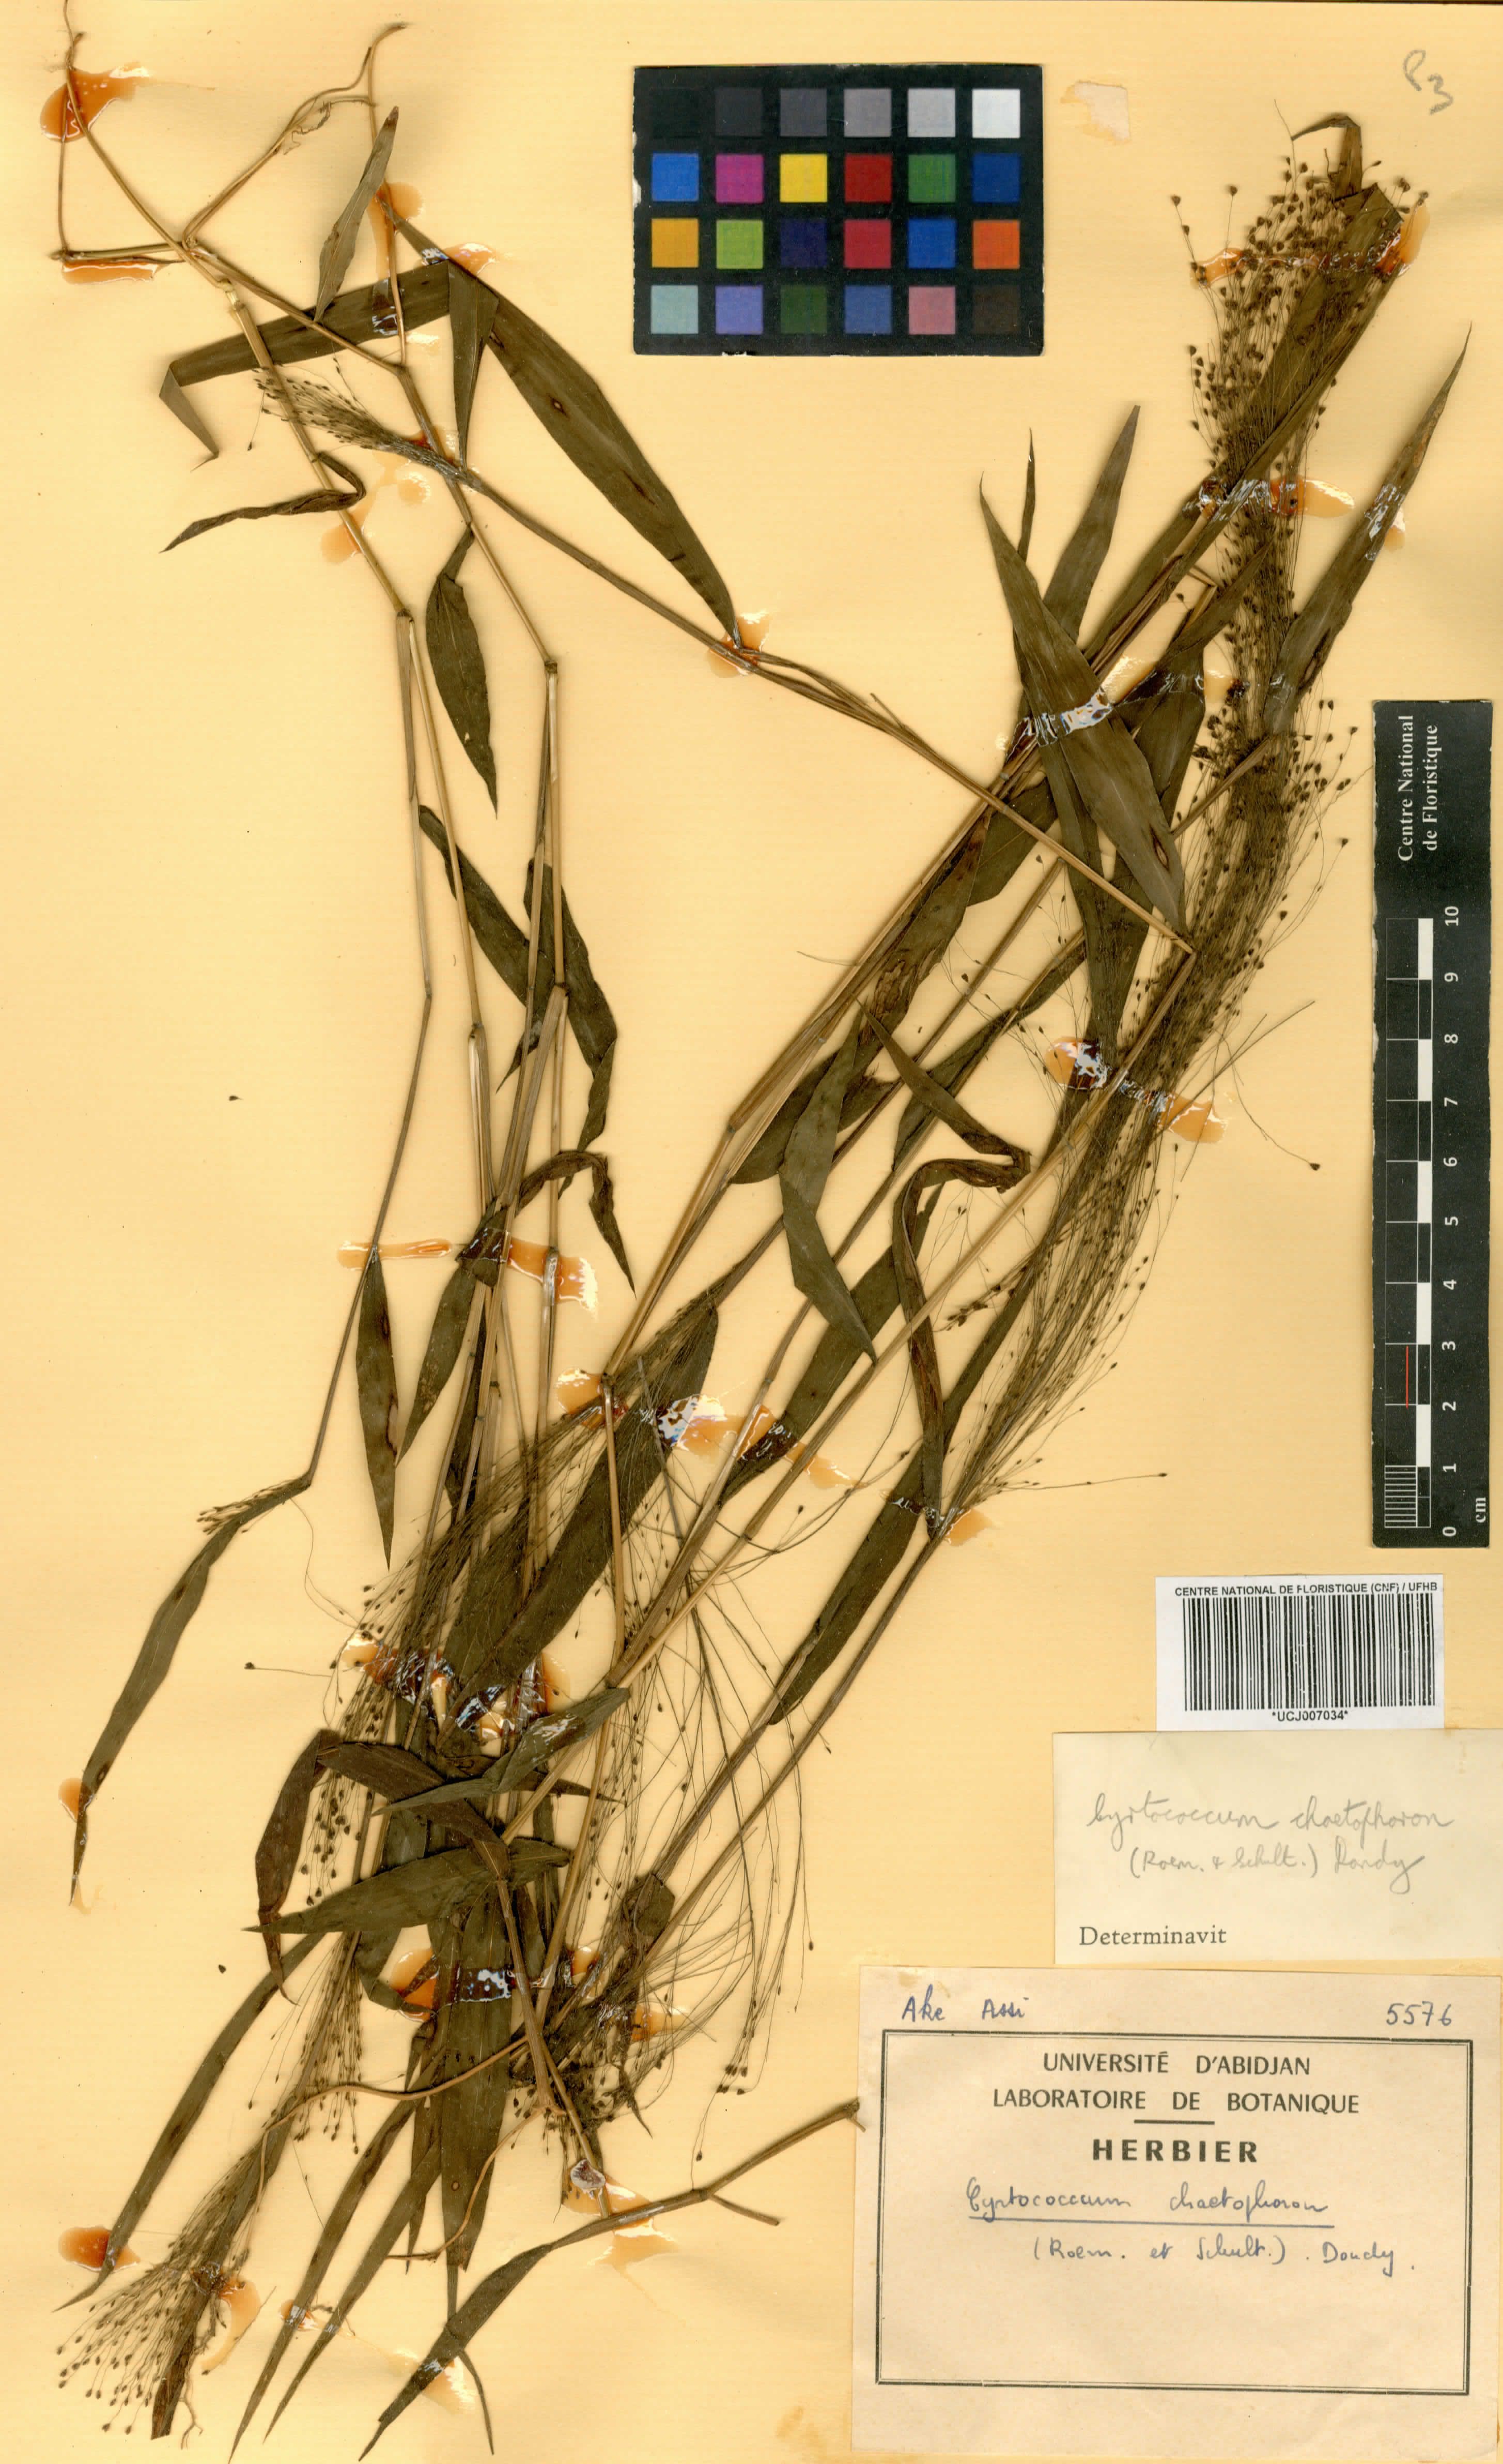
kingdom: Plantae
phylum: Tracheophyta
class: Liliopsida
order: Poales
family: Poaceae
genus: Cyrtococcum
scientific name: Cyrtococcum chaetophoron
